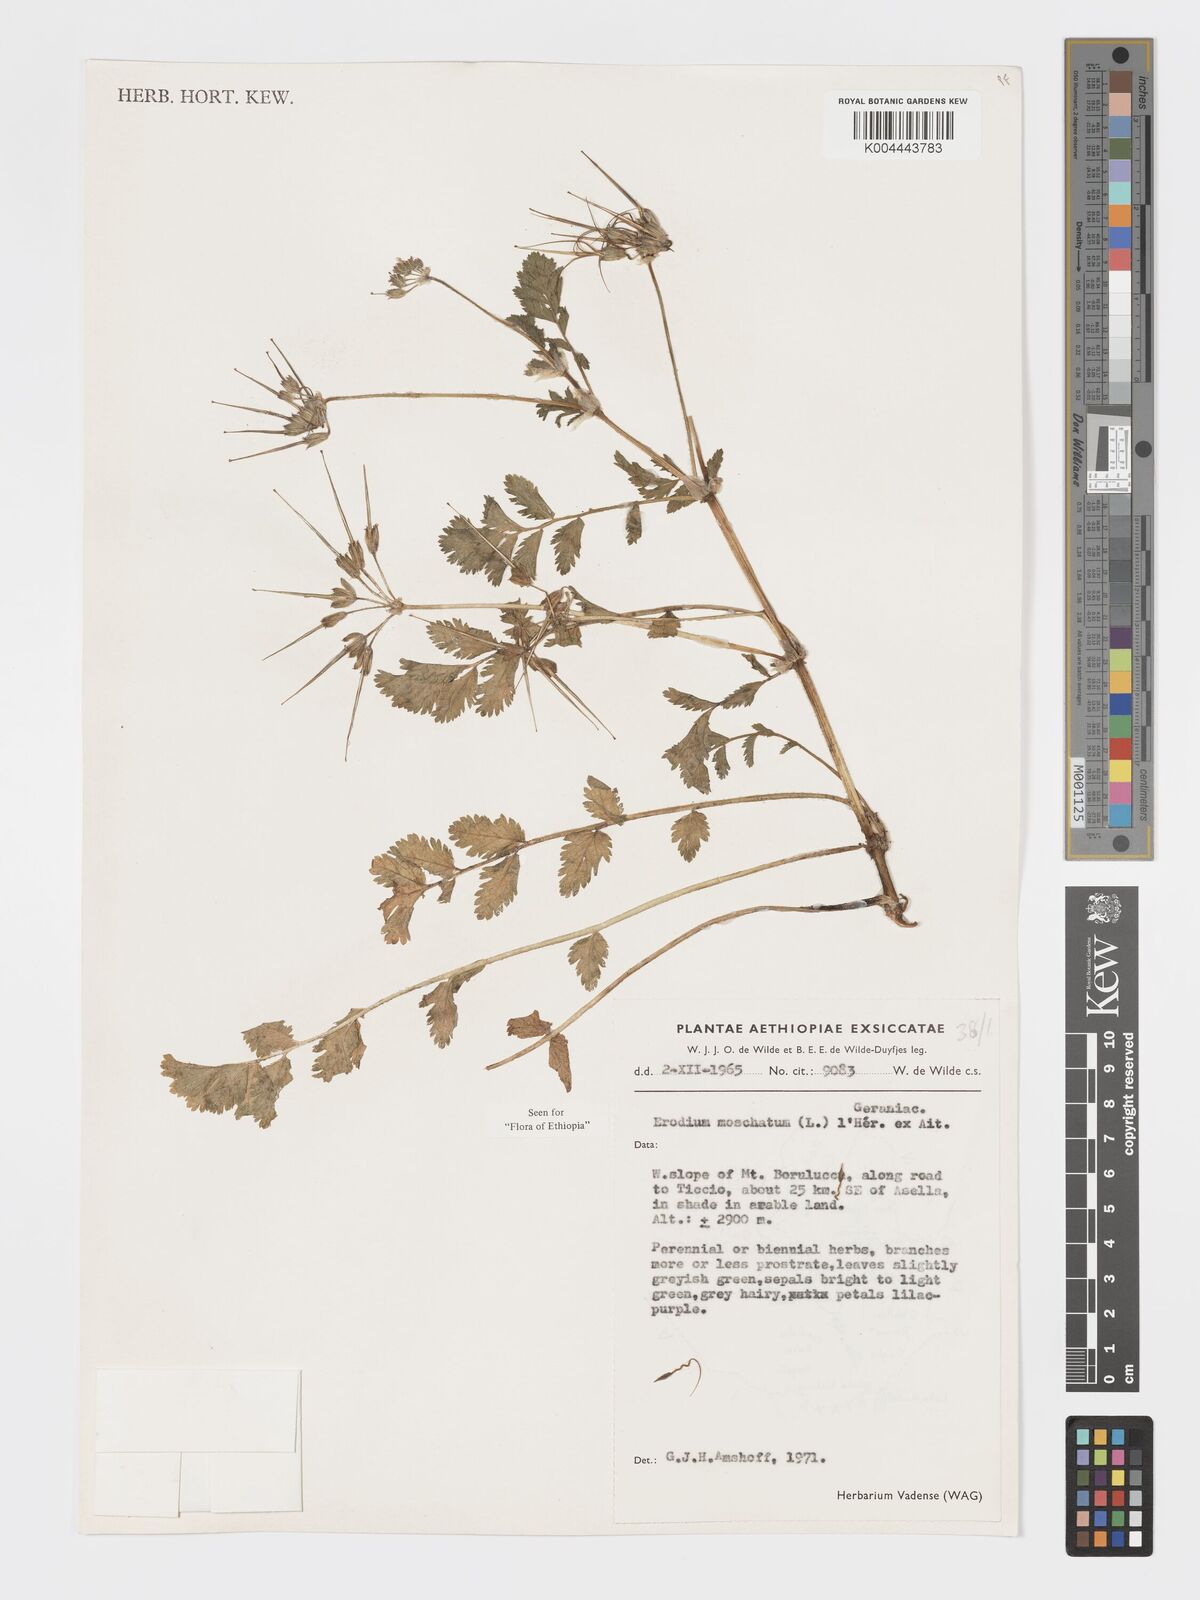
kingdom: Plantae
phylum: Tracheophyta
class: Magnoliopsida
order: Geraniales
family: Geraniaceae
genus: Erodium
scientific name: Erodium moschatum
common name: Musk stork's-bill
